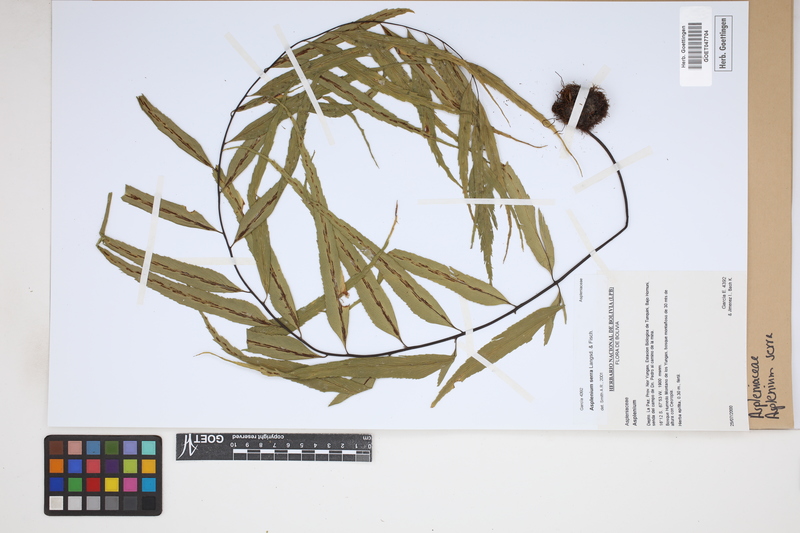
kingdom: Plantae
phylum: Tracheophyta
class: Polypodiopsida
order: Polypodiales
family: Aspleniaceae
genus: Asplenium
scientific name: Asplenium serra
